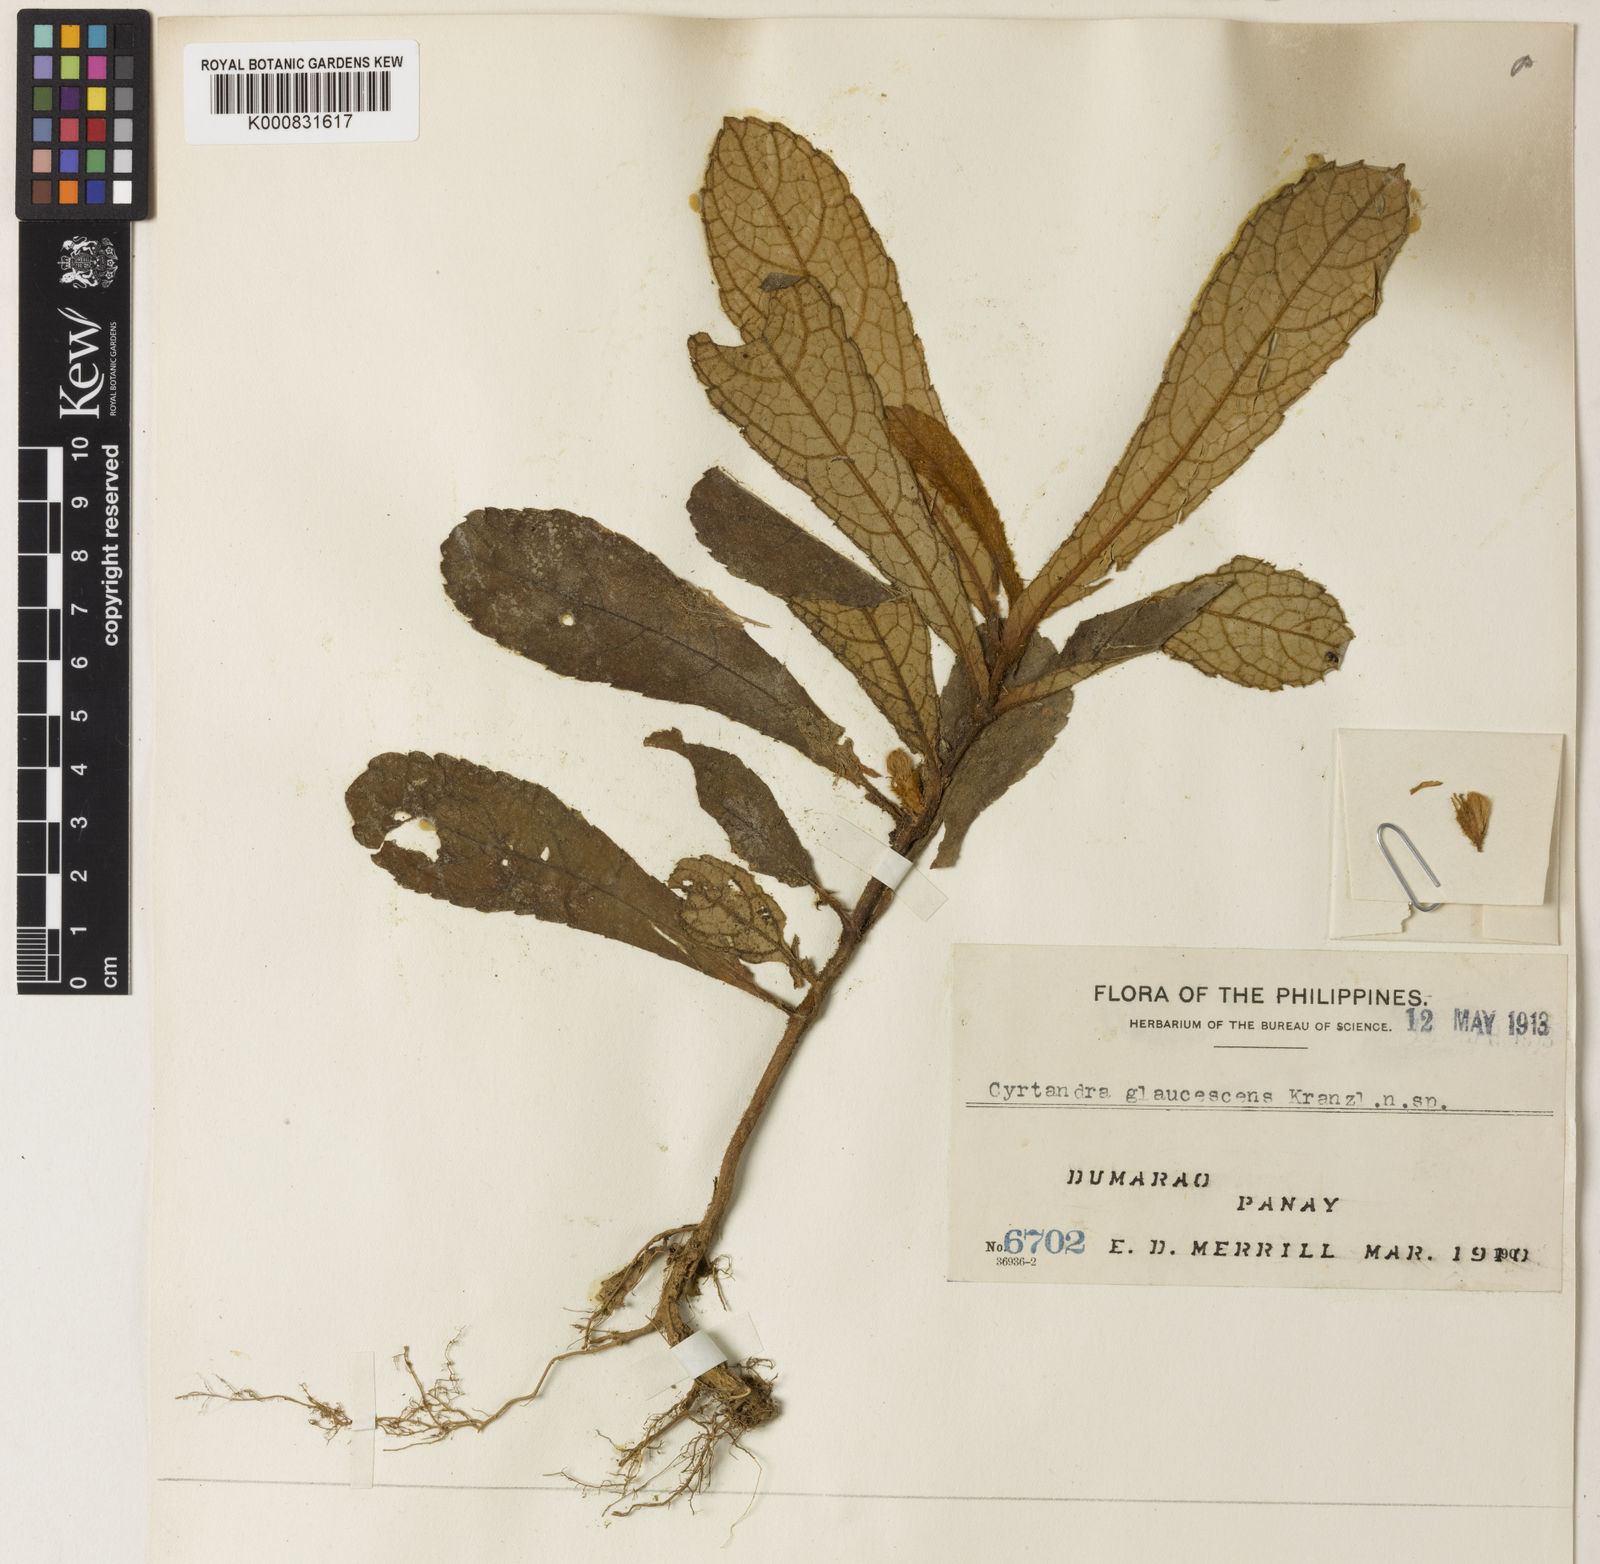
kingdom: Plantae
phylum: Tracheophyta
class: Magnoliopsida
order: Lamiales
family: Gesneriaceae
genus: Cyrtandra
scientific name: Cyrtandra humilis
